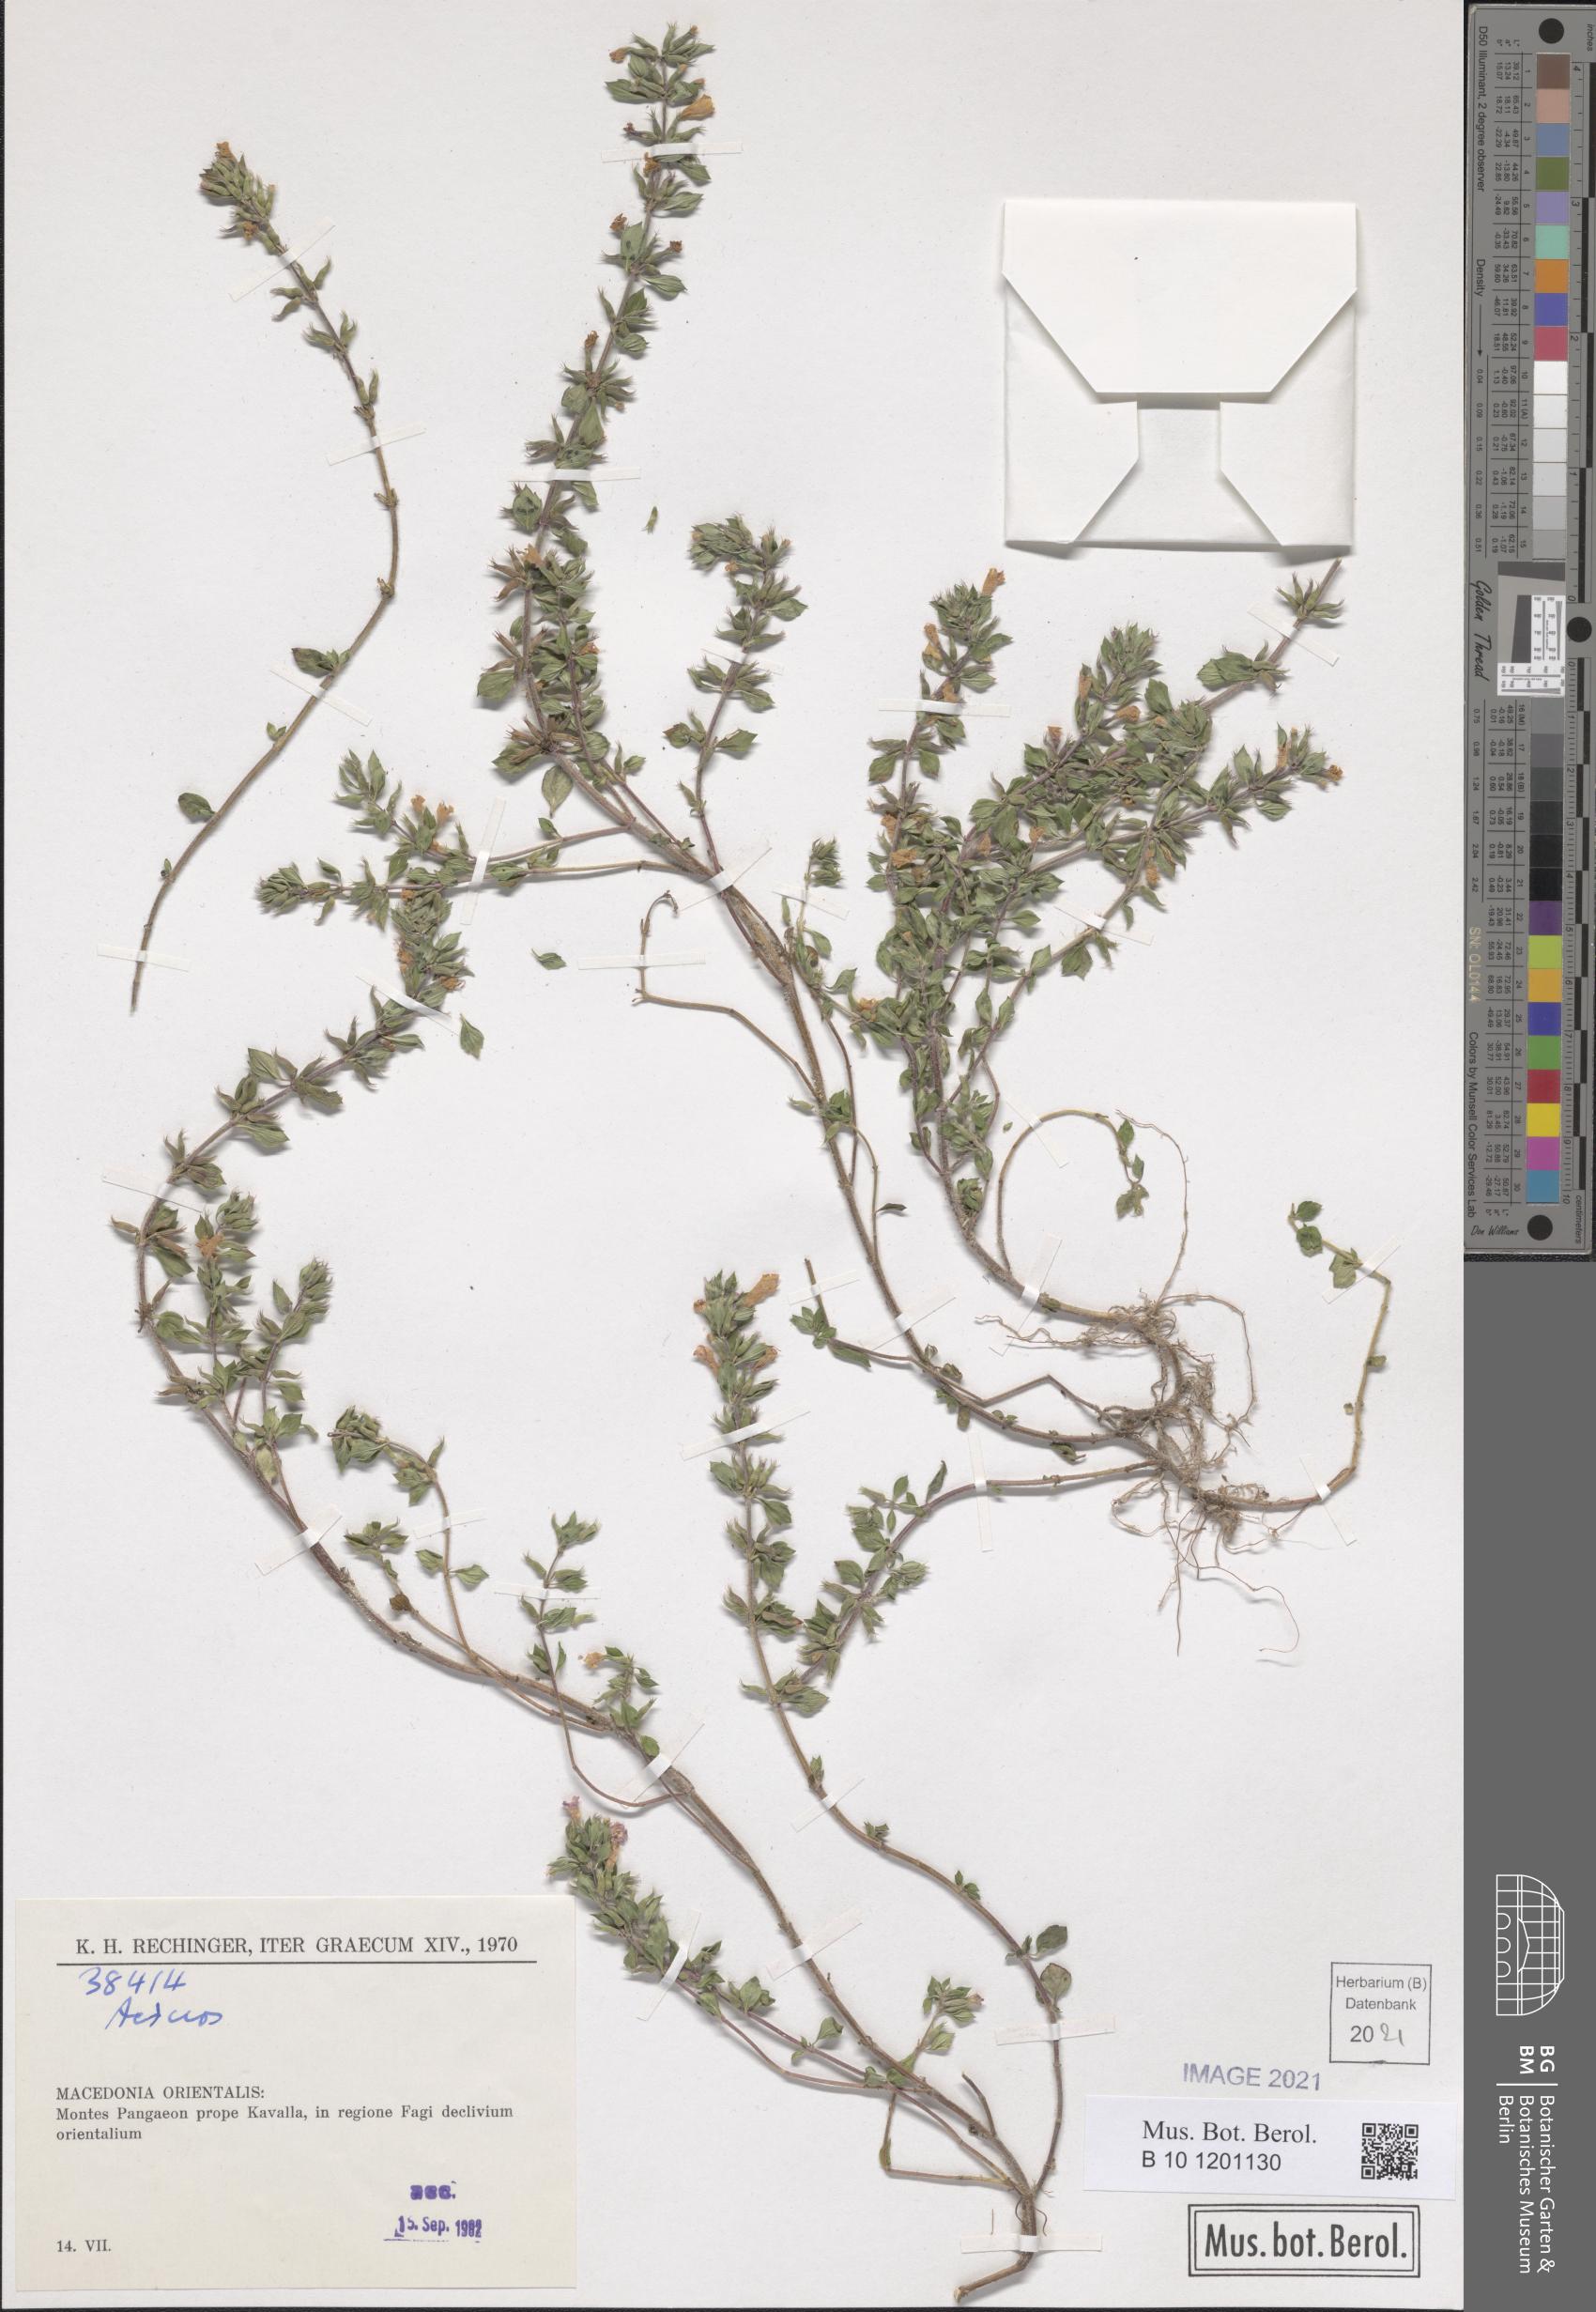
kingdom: Plantae
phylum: Tracheophyta
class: Magnoliopsida
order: Lamiales
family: Lamiaceae
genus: Acinos
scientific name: Acinos
